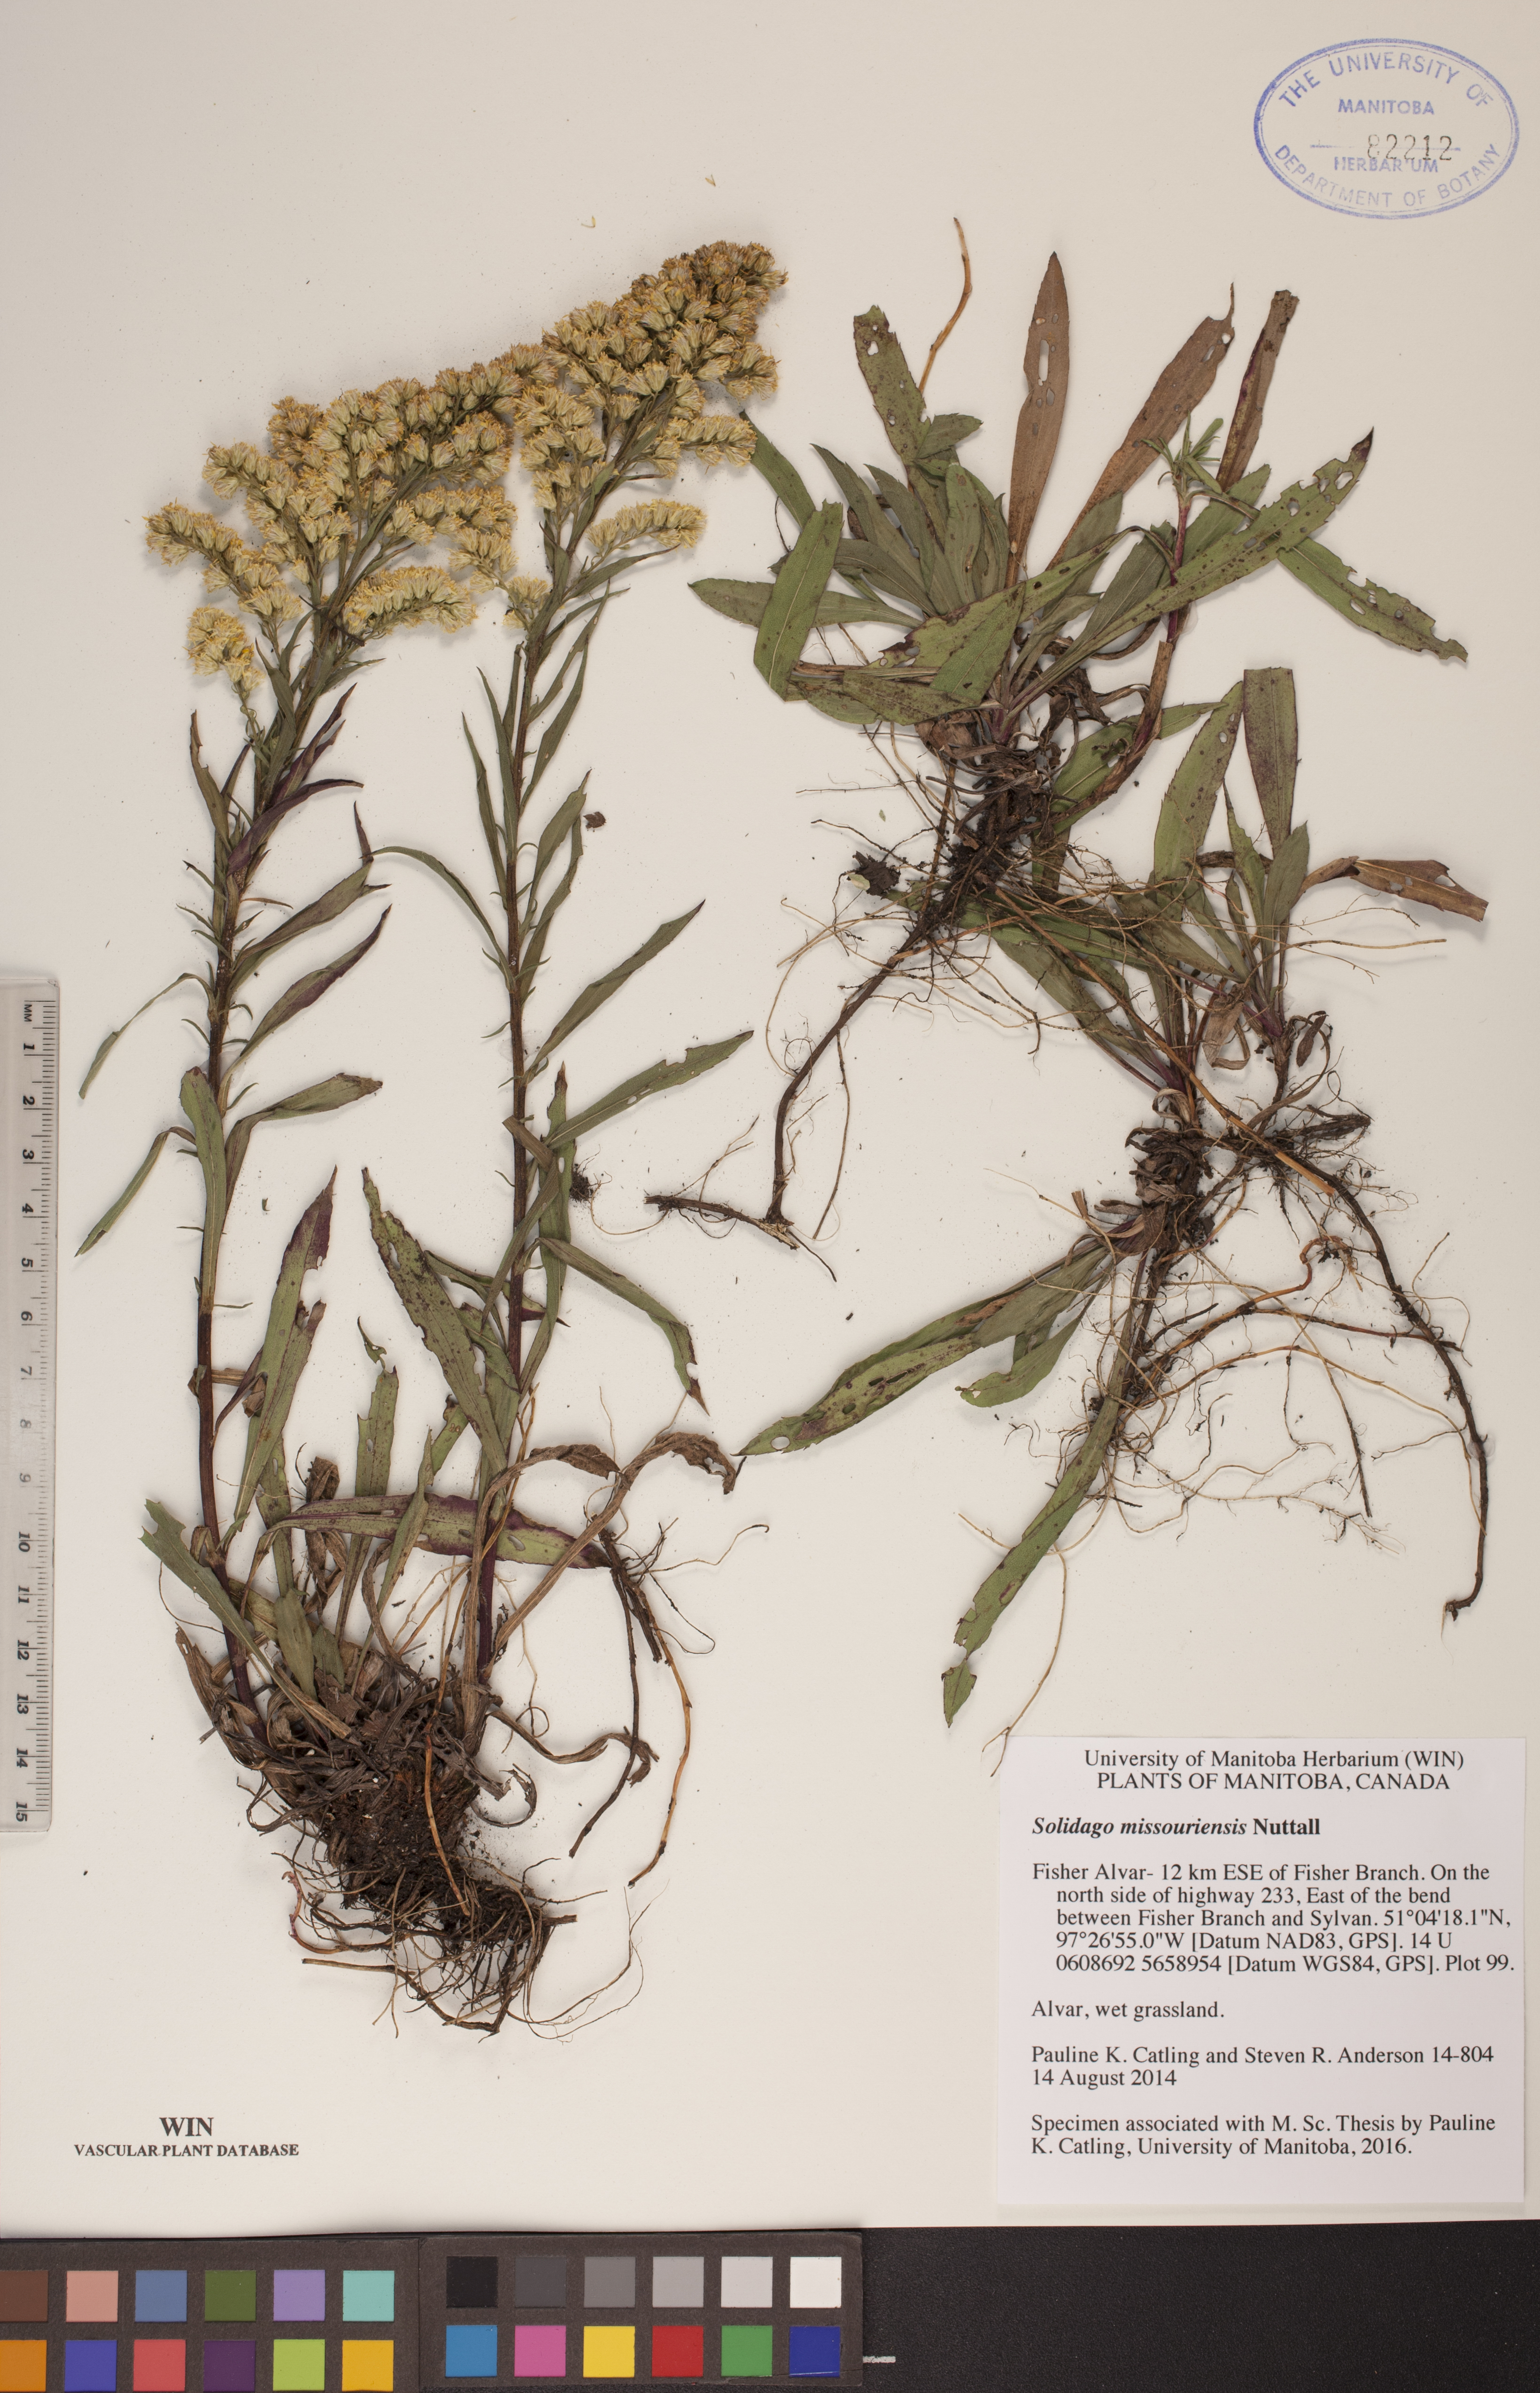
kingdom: Plantae
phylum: Tracheophyta
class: Magnoliopsida
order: Asterales
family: Asteraceae
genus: Solidago
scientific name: Solidago missouriensis
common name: Prairie goldenrod
